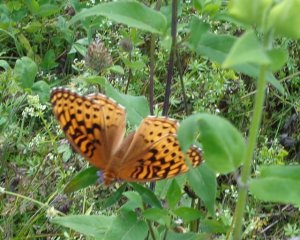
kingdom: Animalia
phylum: Arthropoda
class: Insecta
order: Lepidoptera
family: Nymphalidae
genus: Speyeria
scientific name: Speyeria cybele
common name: Great Spangled Fritillary
